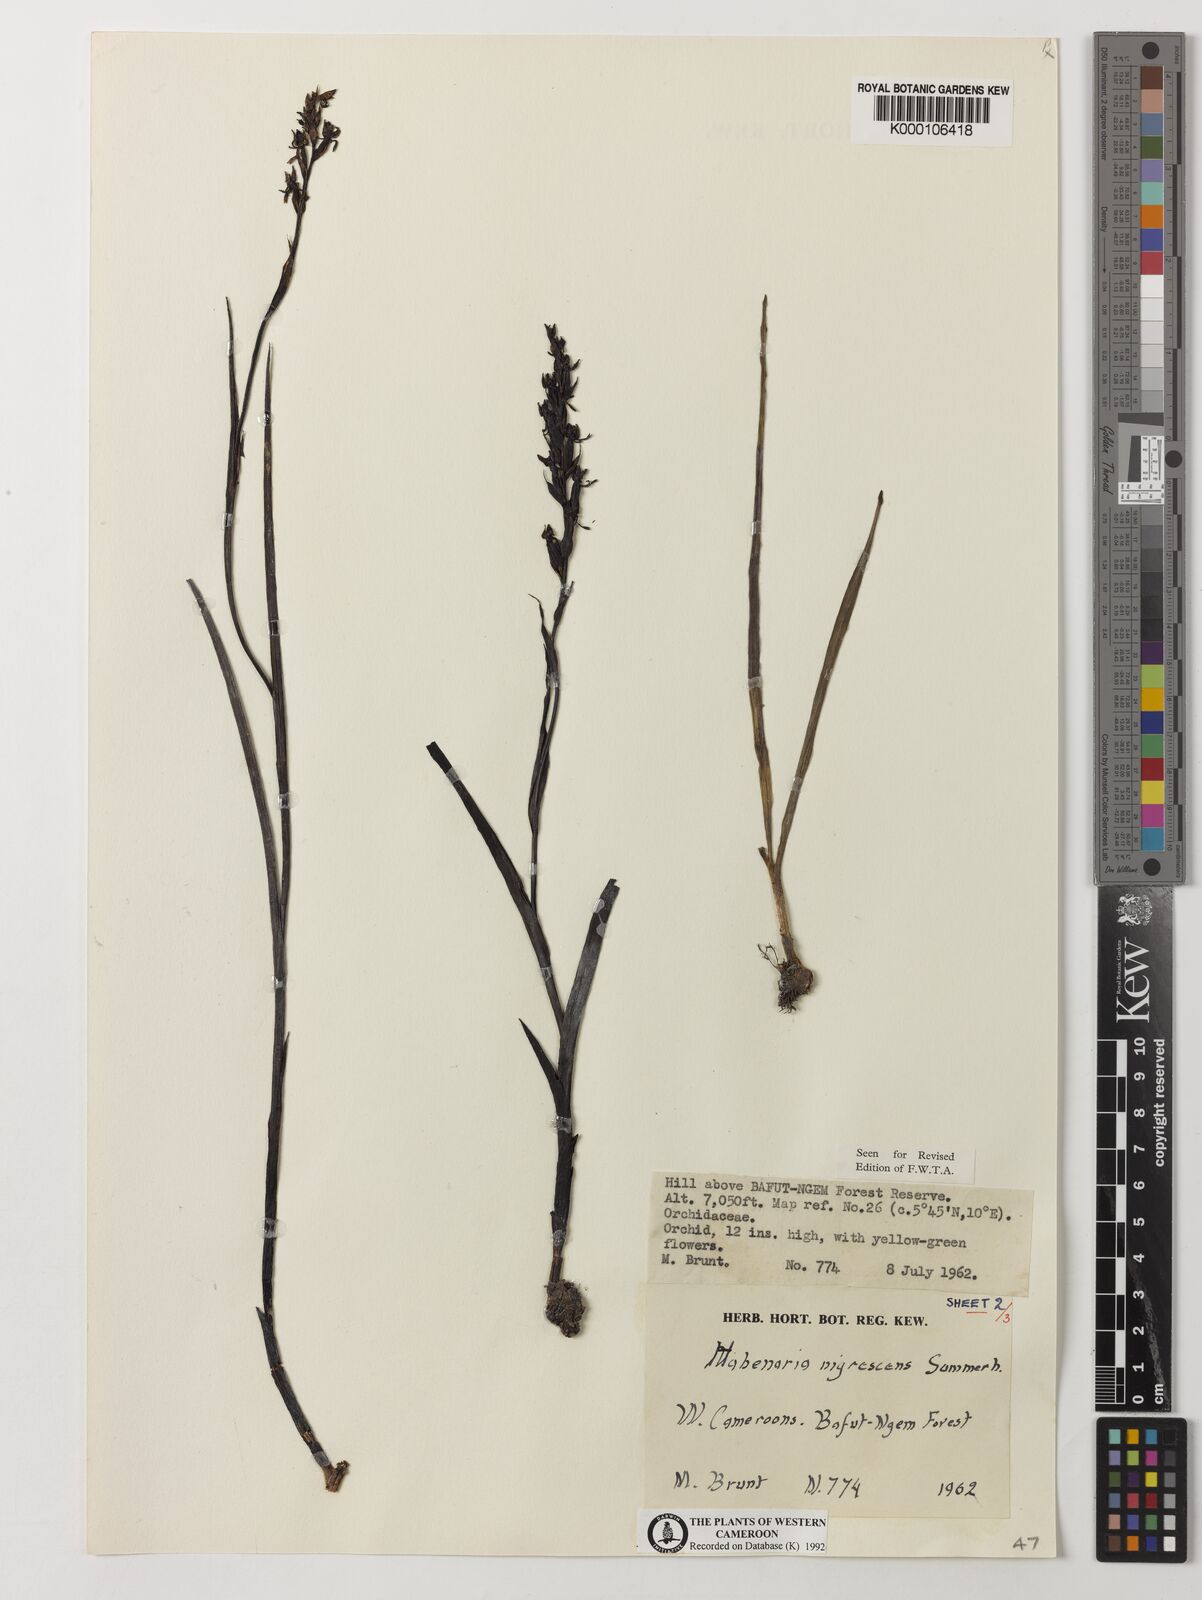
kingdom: Plantae
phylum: Tracheophyta
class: Liliopsida
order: Asparagales
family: Orchidaceae
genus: Habenaria
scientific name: Habenaria nigrescens
